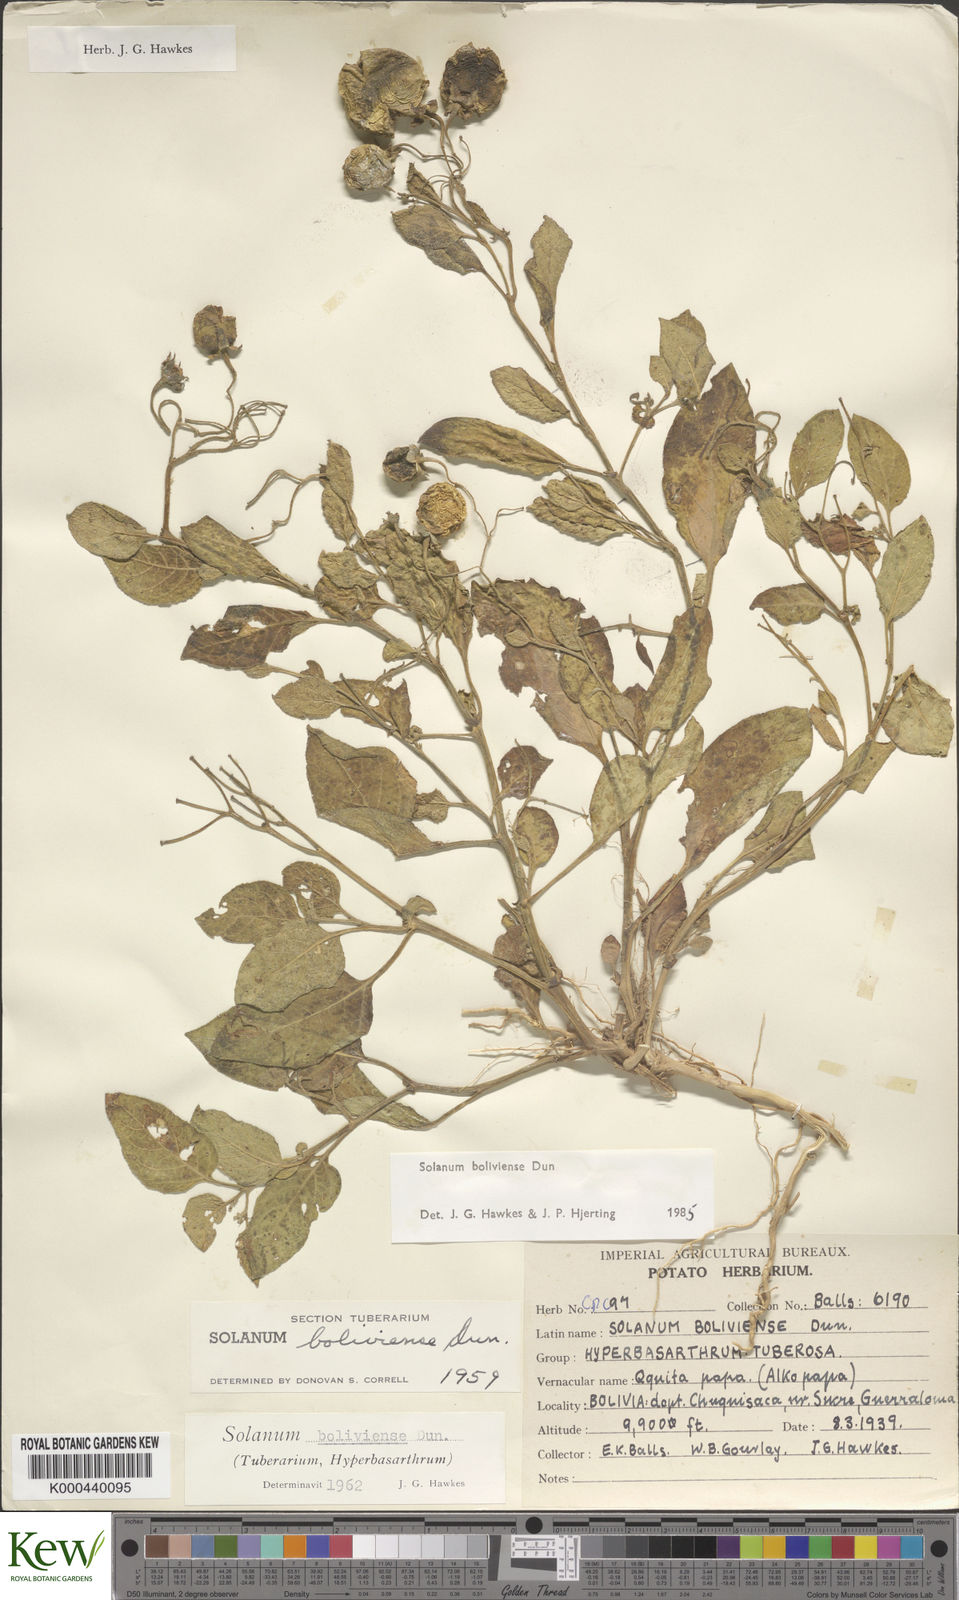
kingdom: Plantae
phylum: Tracheophyta
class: Magnoliopsida
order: Solanales
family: Solanaceae
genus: Solanum
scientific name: Solanum boliviense
